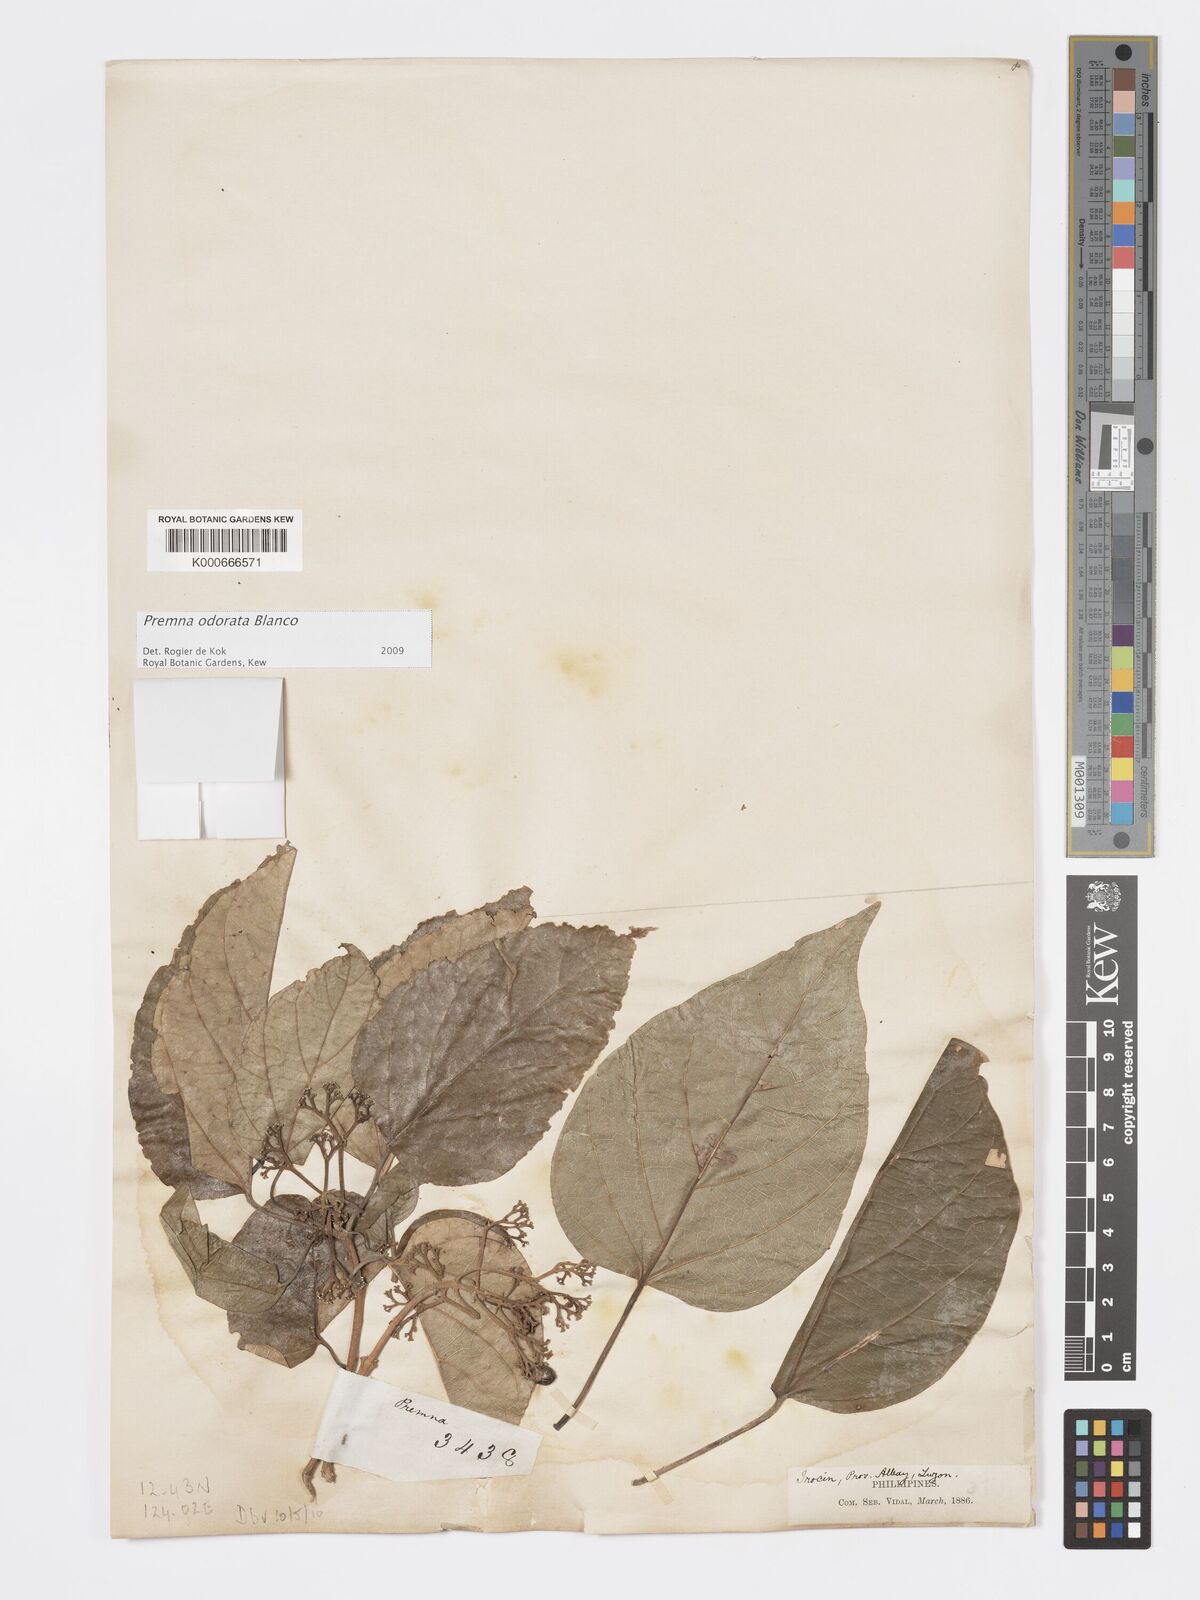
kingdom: Plantae
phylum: Tracheophyta
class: Magnoliopsida
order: Lamiales
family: Lamiaceae
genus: Premna
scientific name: Premna odorata
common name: Fragrant premna
